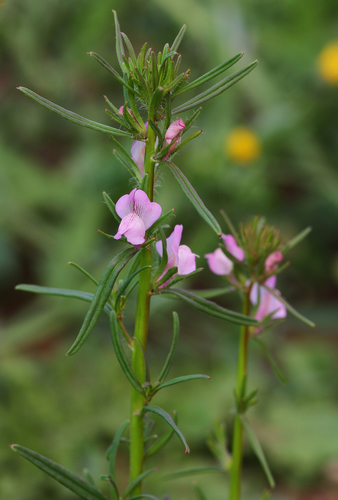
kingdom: Plantae
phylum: Tracheophyta
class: Magnoliopsida
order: Lamiales
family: Plantaginaceae
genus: Misopates
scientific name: Misopates orontium
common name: Weasel's-snout
